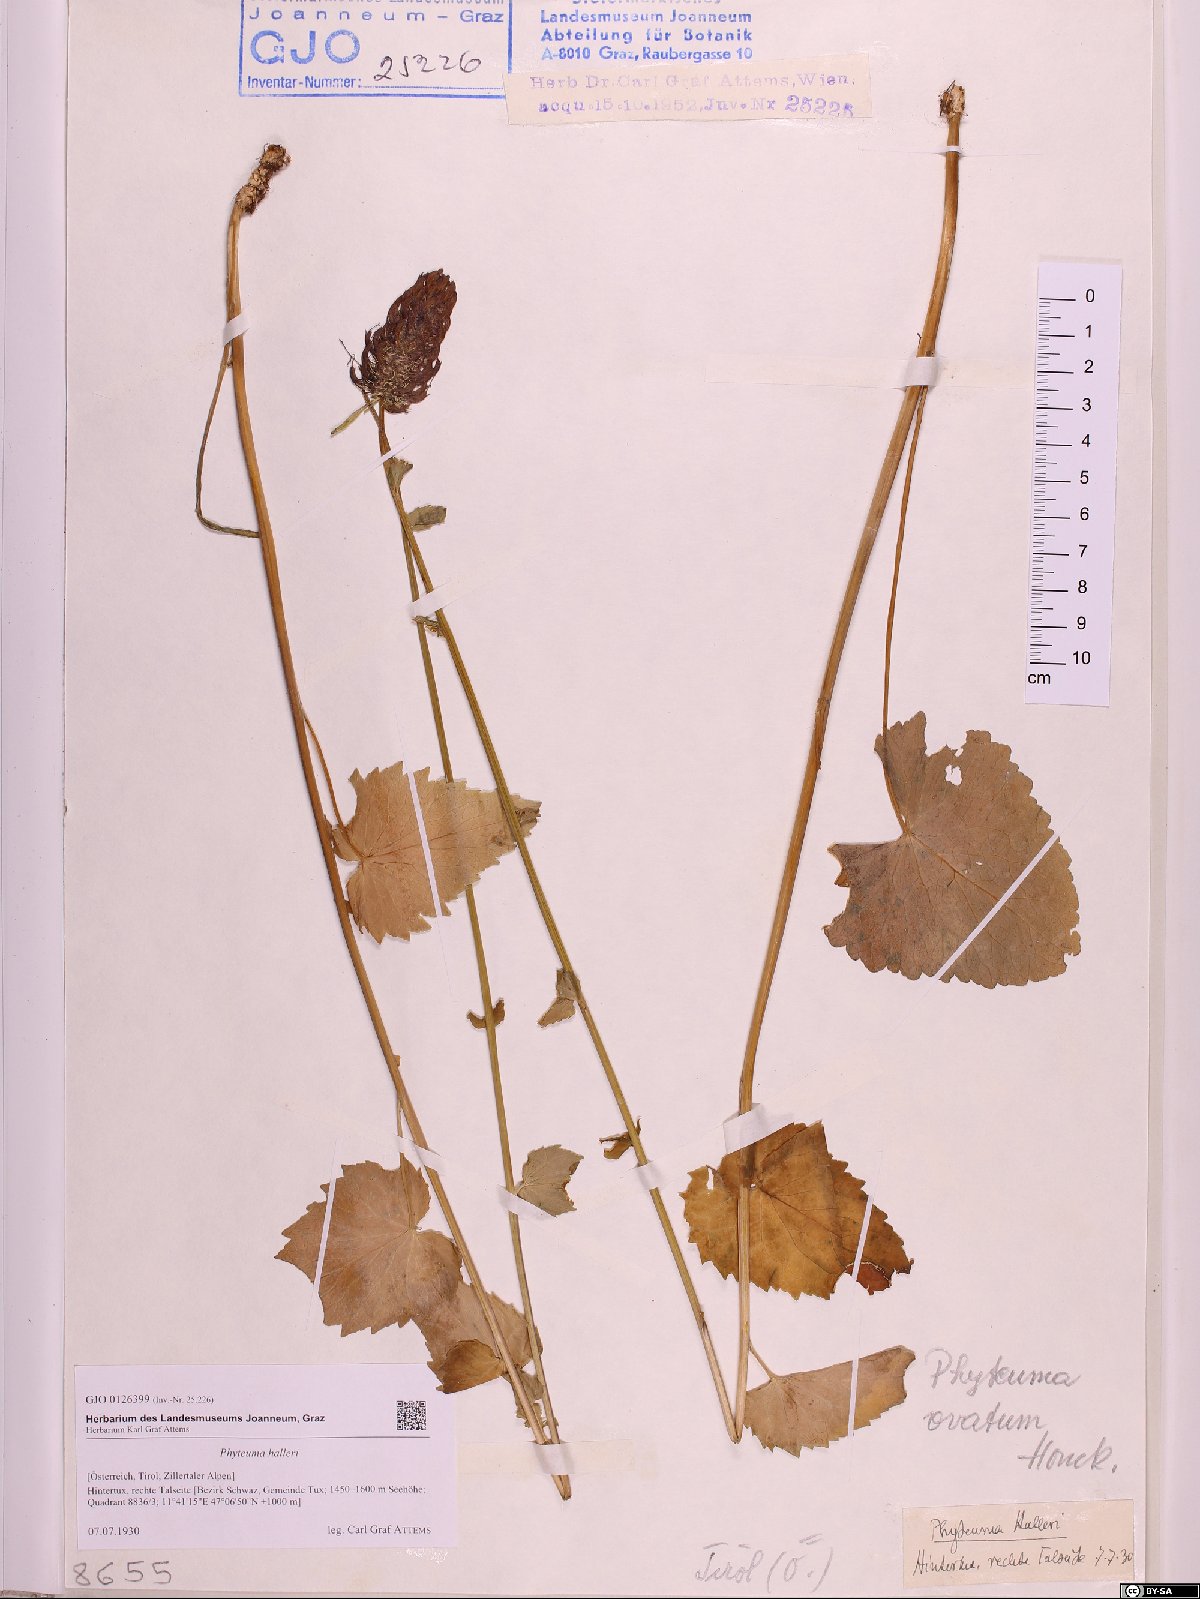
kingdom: Plantae
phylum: Tracheophyta
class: Magnoliopsida
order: Asterales
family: Campanulaceae
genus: Phyteuma
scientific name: Phyteuma ovatum
